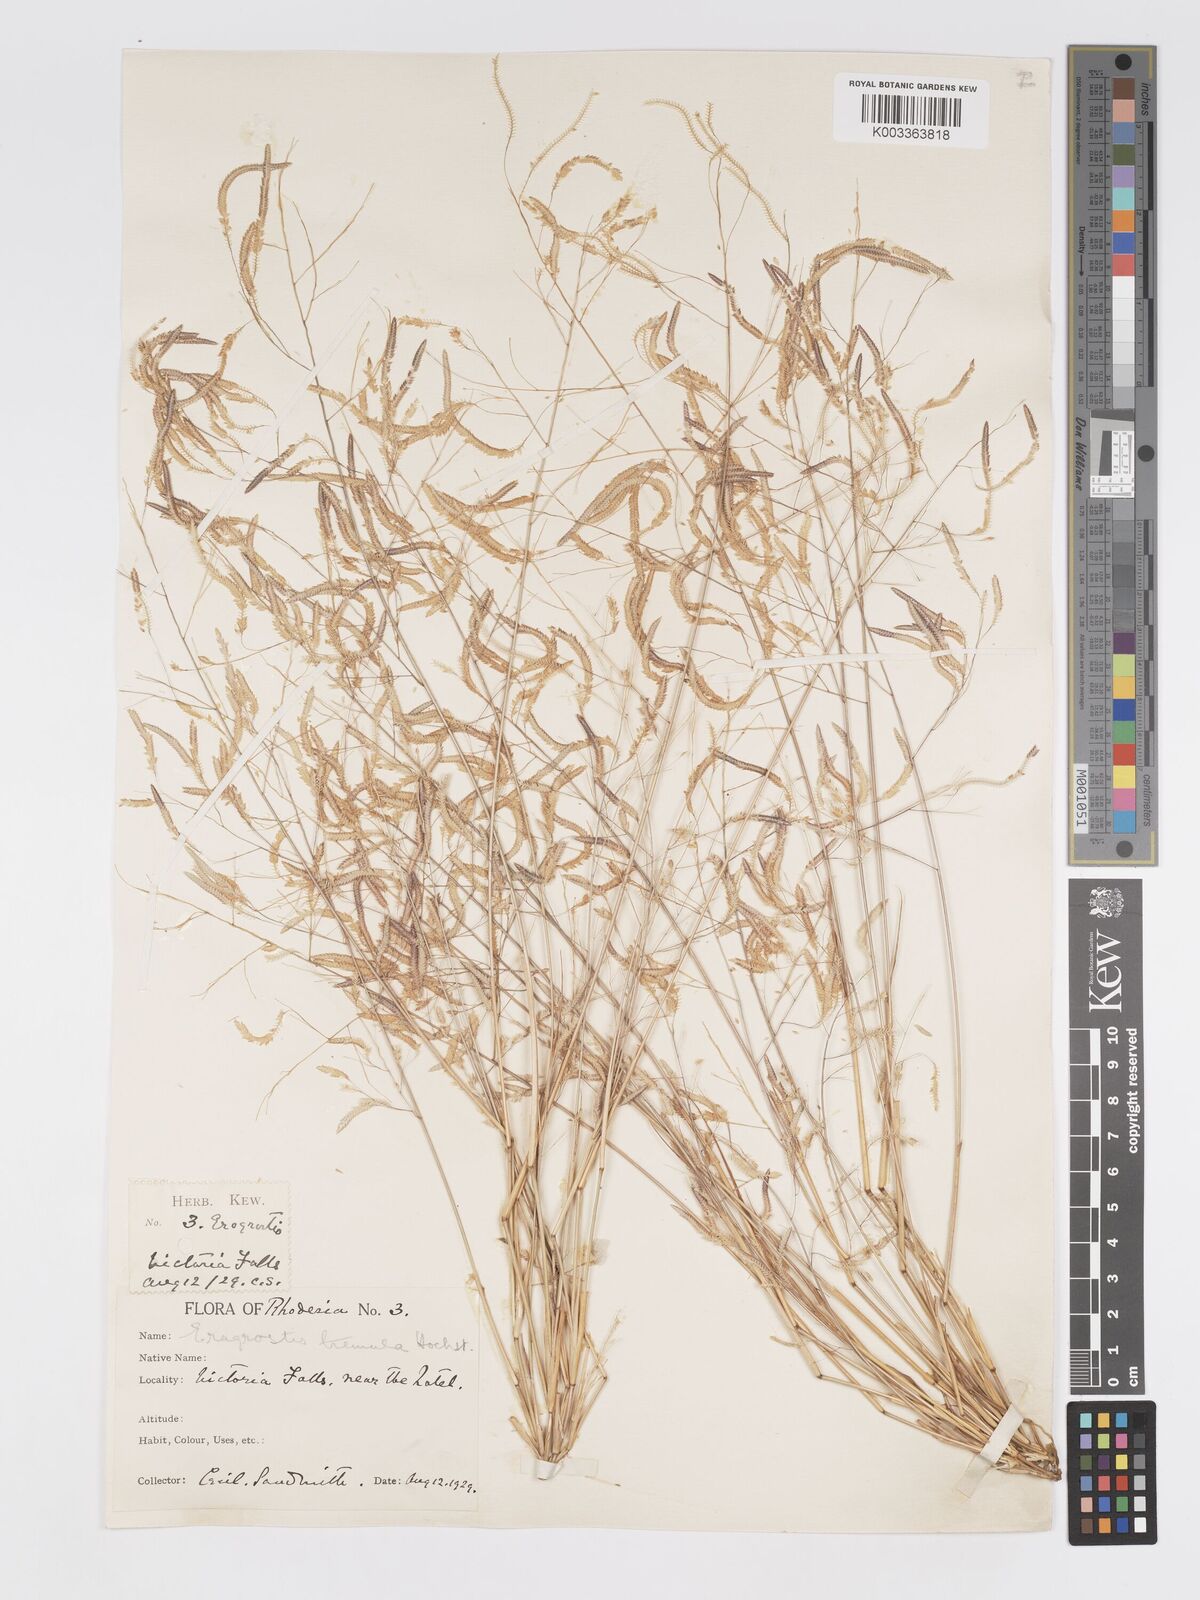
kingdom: Plantae
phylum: Tracheophyta
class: Liliopsida
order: Poales
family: Poaceae
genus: Eragrostis
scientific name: Eragrostis tremula
